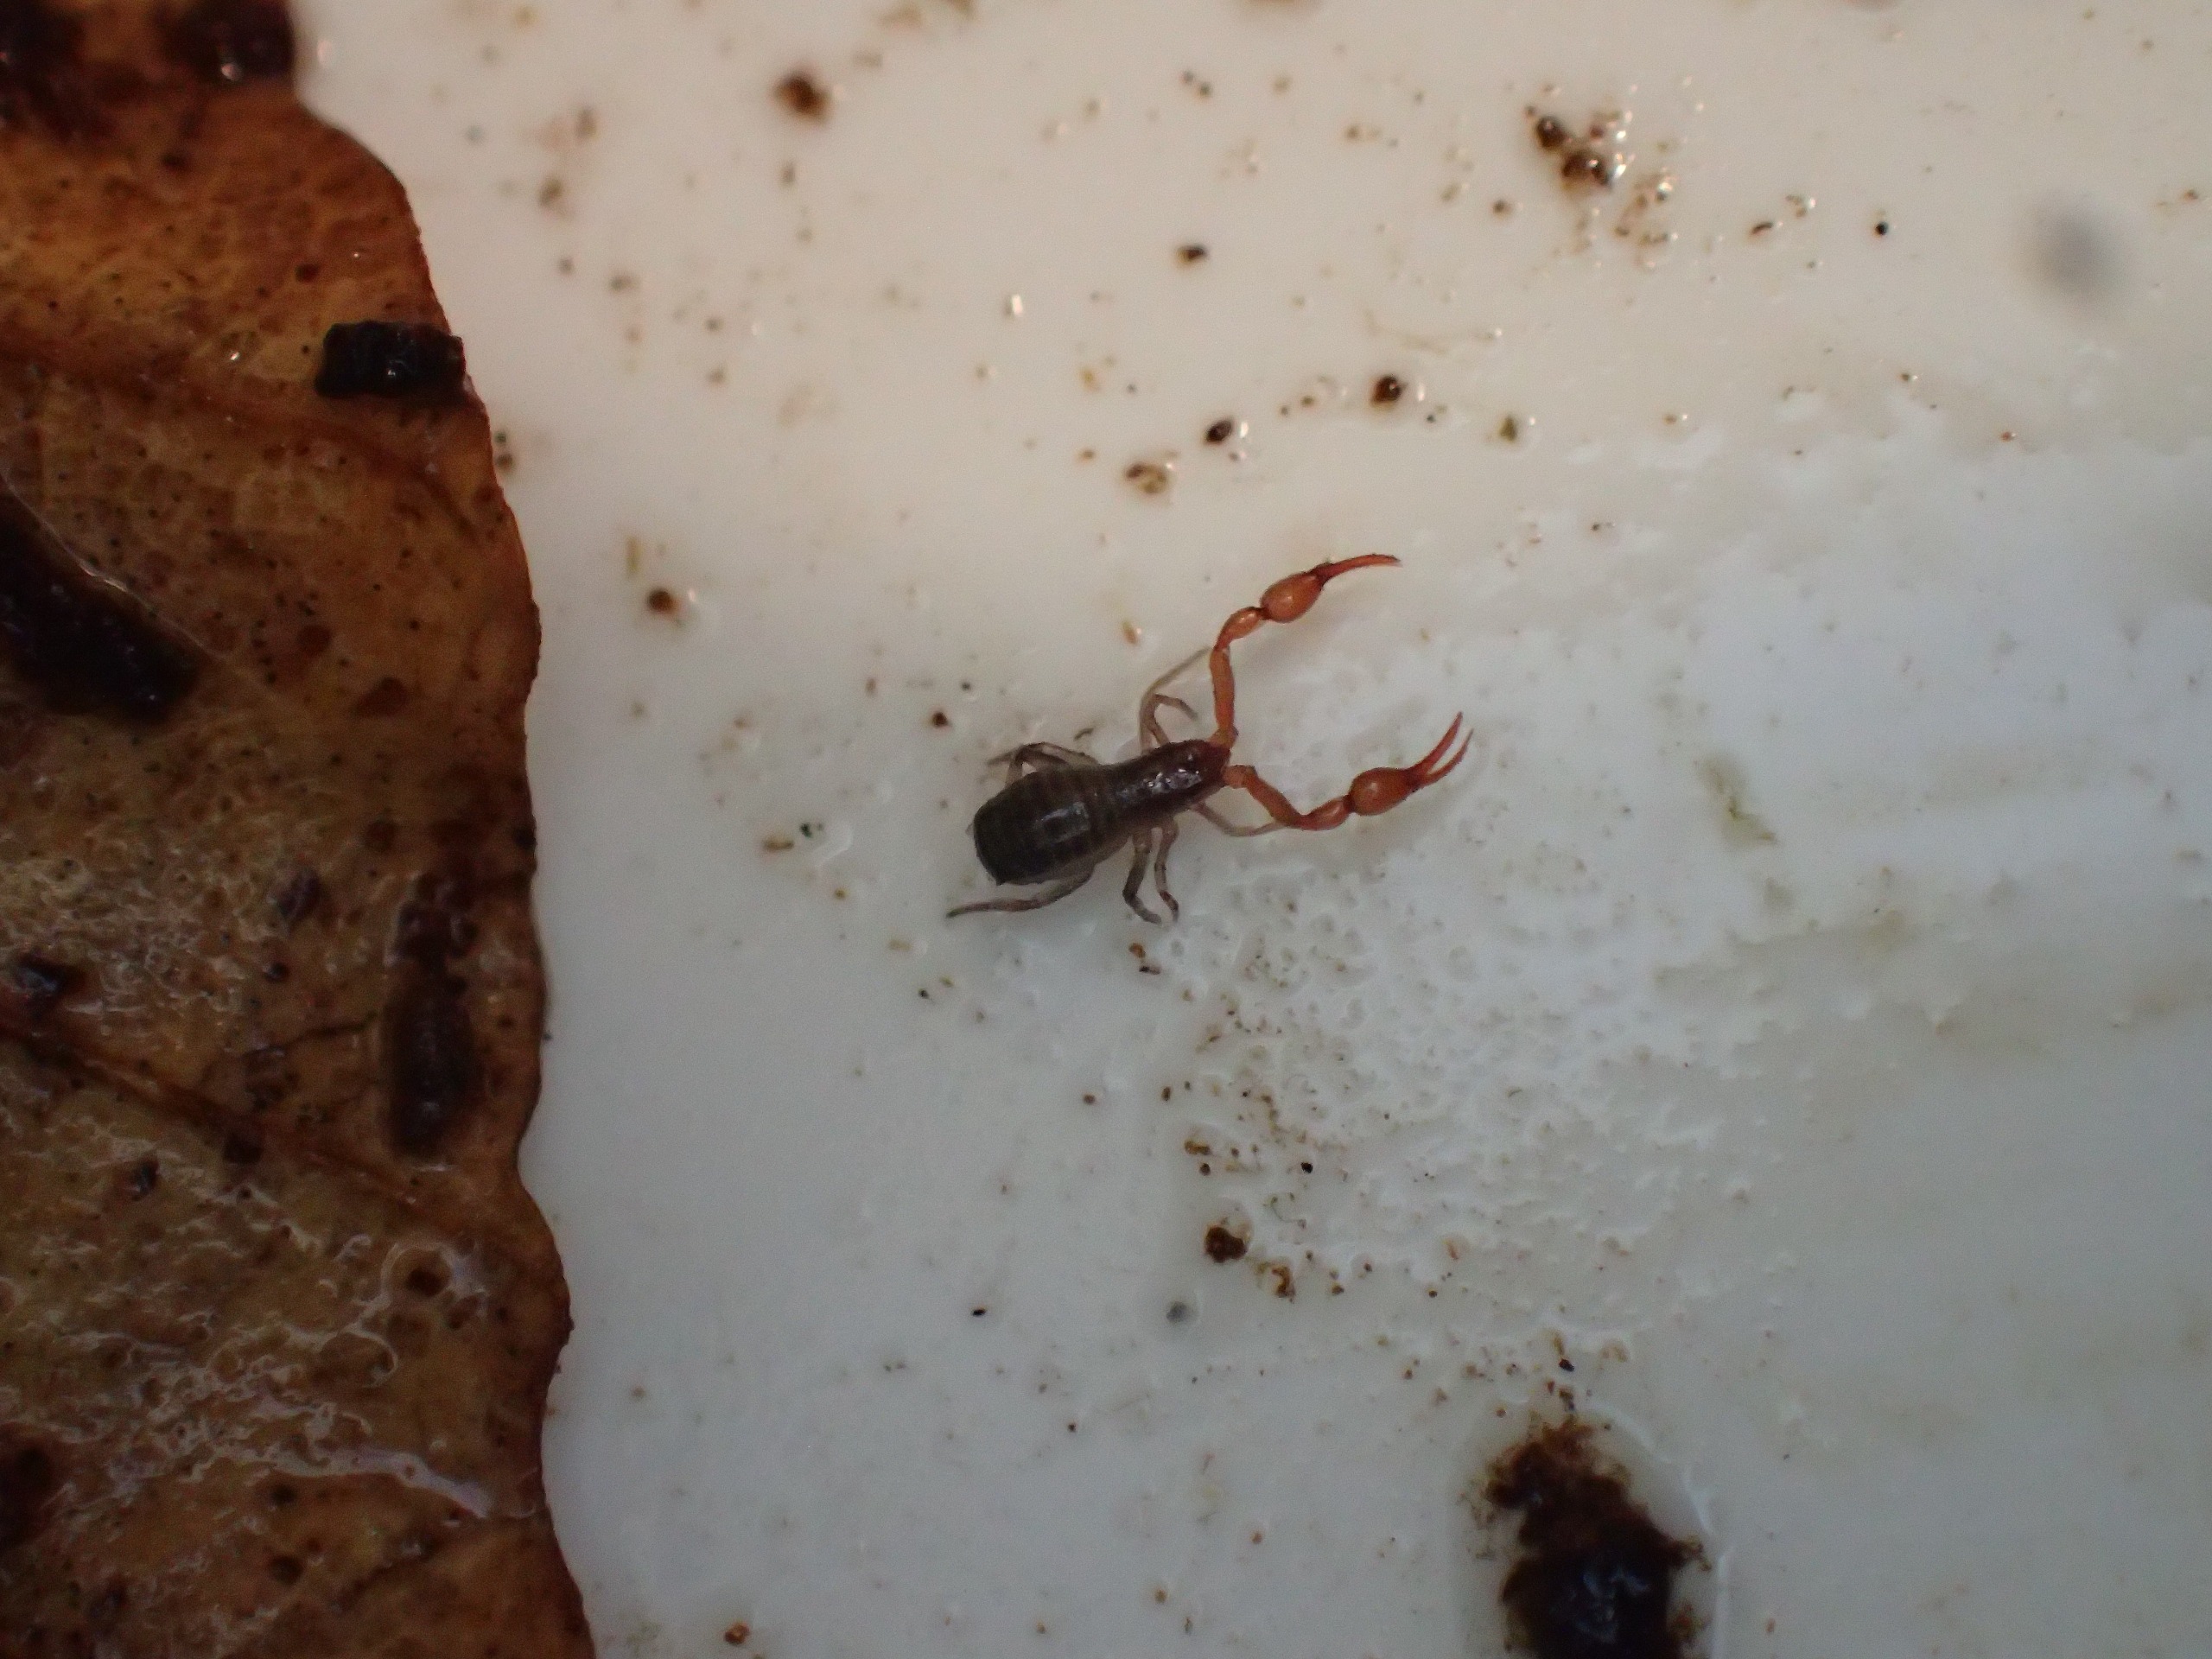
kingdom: Animalia
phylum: Arthropoda
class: Arachnida
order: Pseudoscorpiones
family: Neobisiidae
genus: Neobisium
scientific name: Neobisium carcinoides
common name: Almindelig mosskorpion
